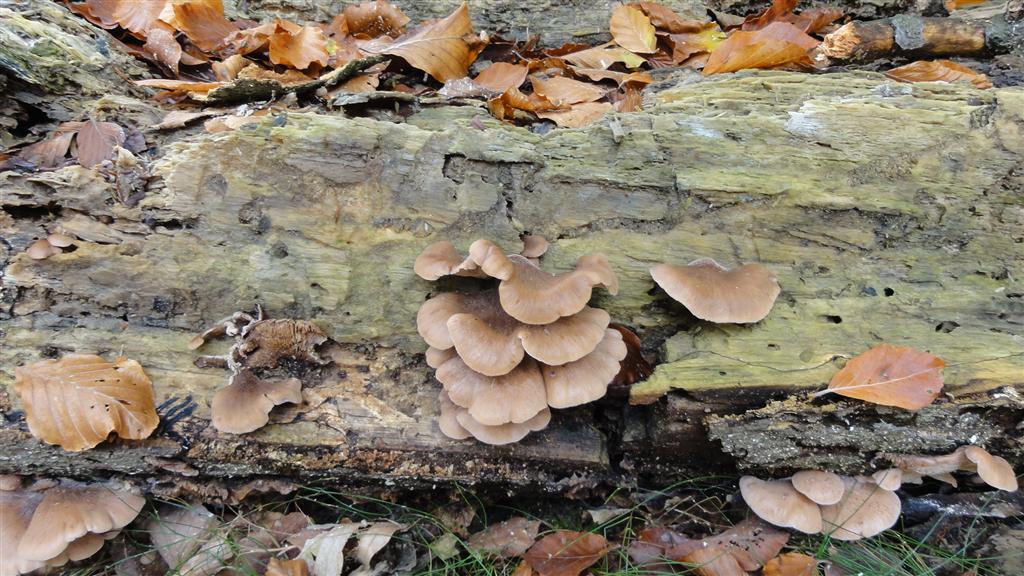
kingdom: Fungi
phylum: Basidiomycota
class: Agaricomycetes
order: Russulales
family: Auriscalpiaceae
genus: Lentinellus
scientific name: Lentinellus ursinus
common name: børstehåret savbladhat
